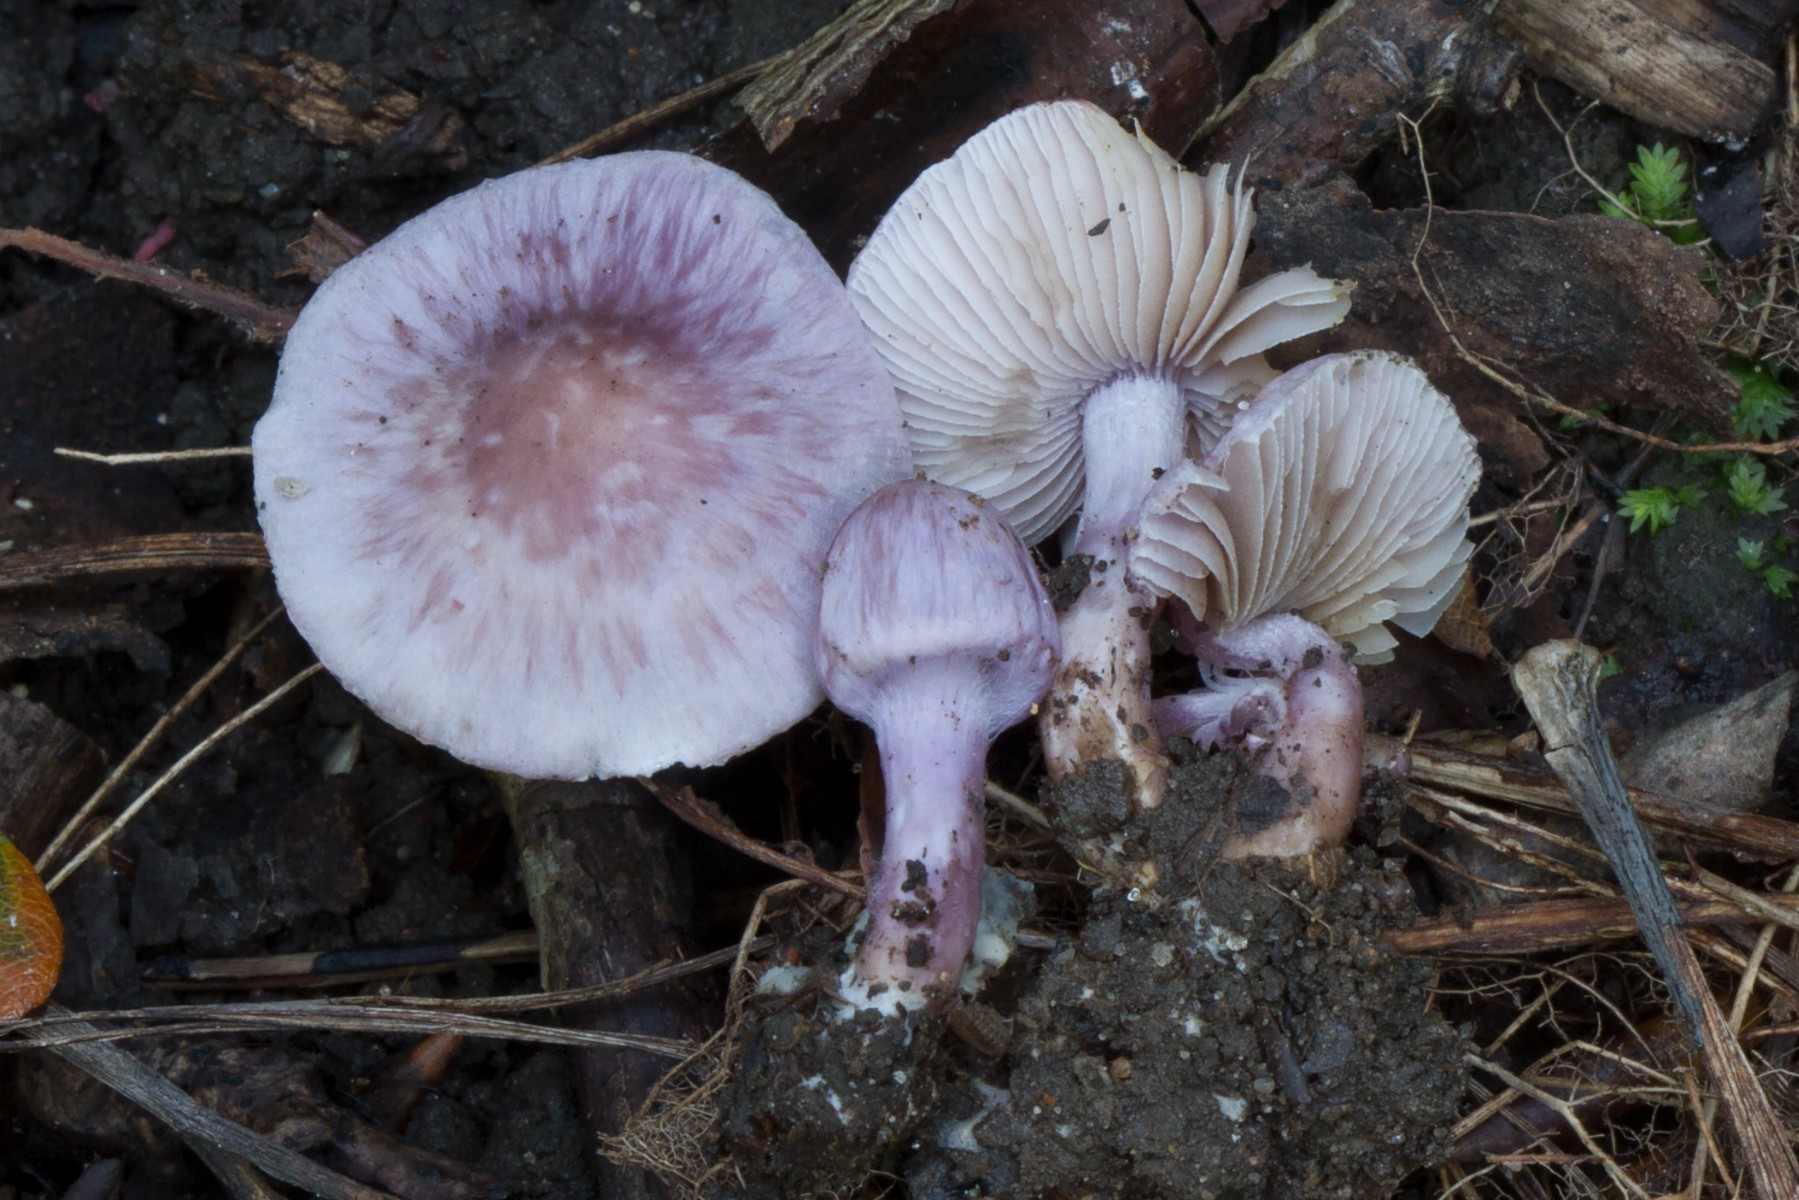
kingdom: Fungi
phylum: Basidiomycota
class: Agaricomycetes
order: Agaricales
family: Inocybaceae
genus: Inocybe
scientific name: Inocybe ionolepis
